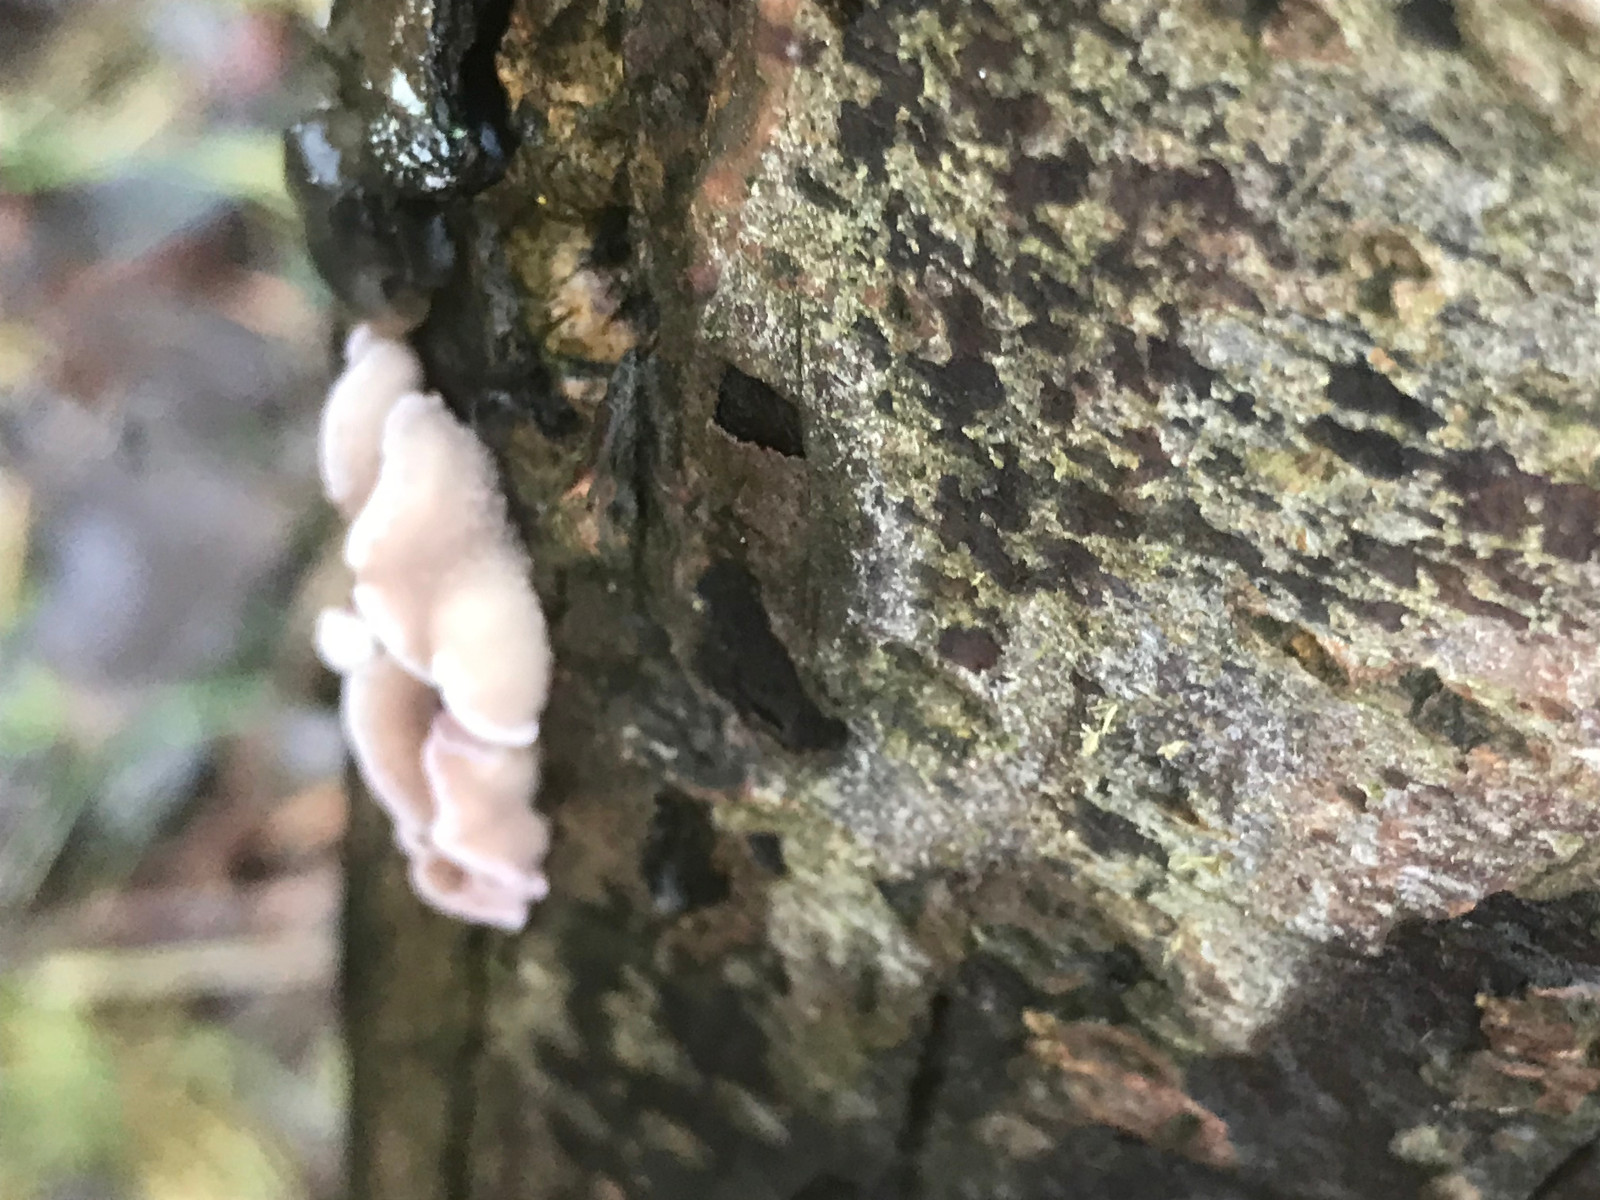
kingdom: Fungi
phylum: Basidiomycota
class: Agaricomycetes
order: Agaricales
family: Cyphellaceae
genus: Chondrostereum
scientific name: Chondrostereum purpureum
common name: purpurlædersvamp
